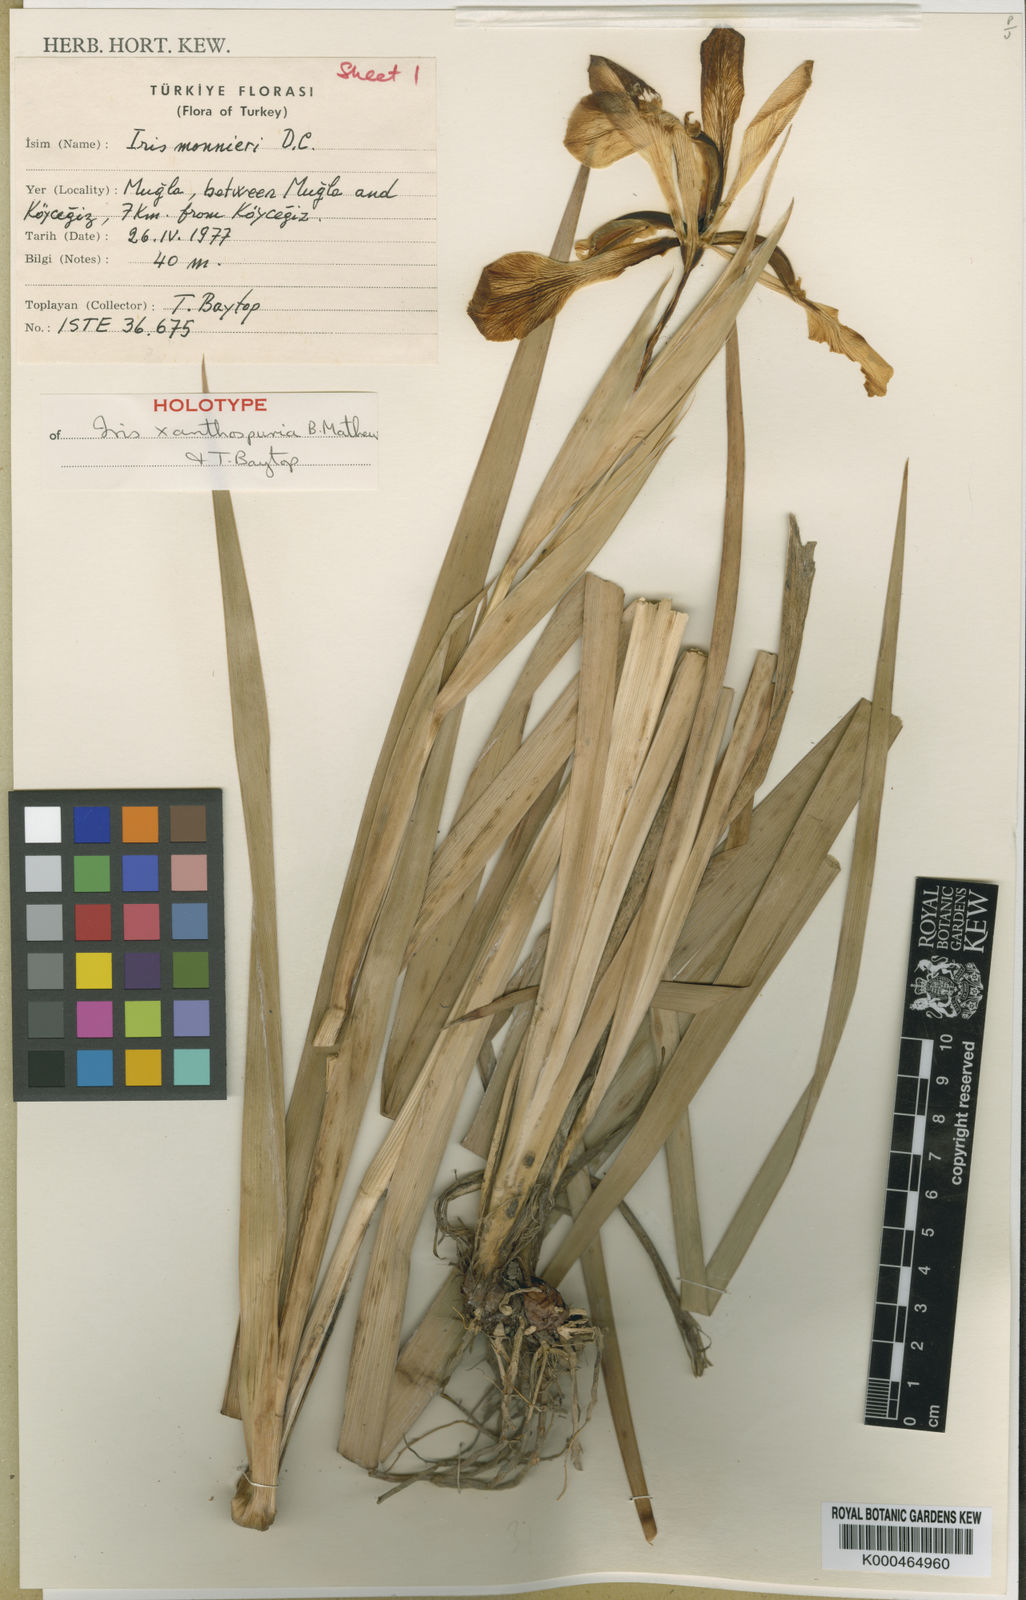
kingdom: Plantae
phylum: Tracheophyta
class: Liliopsida
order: Asparagales
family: Iridaceae
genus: Iris
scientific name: Iris spuria
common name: Blue iris
